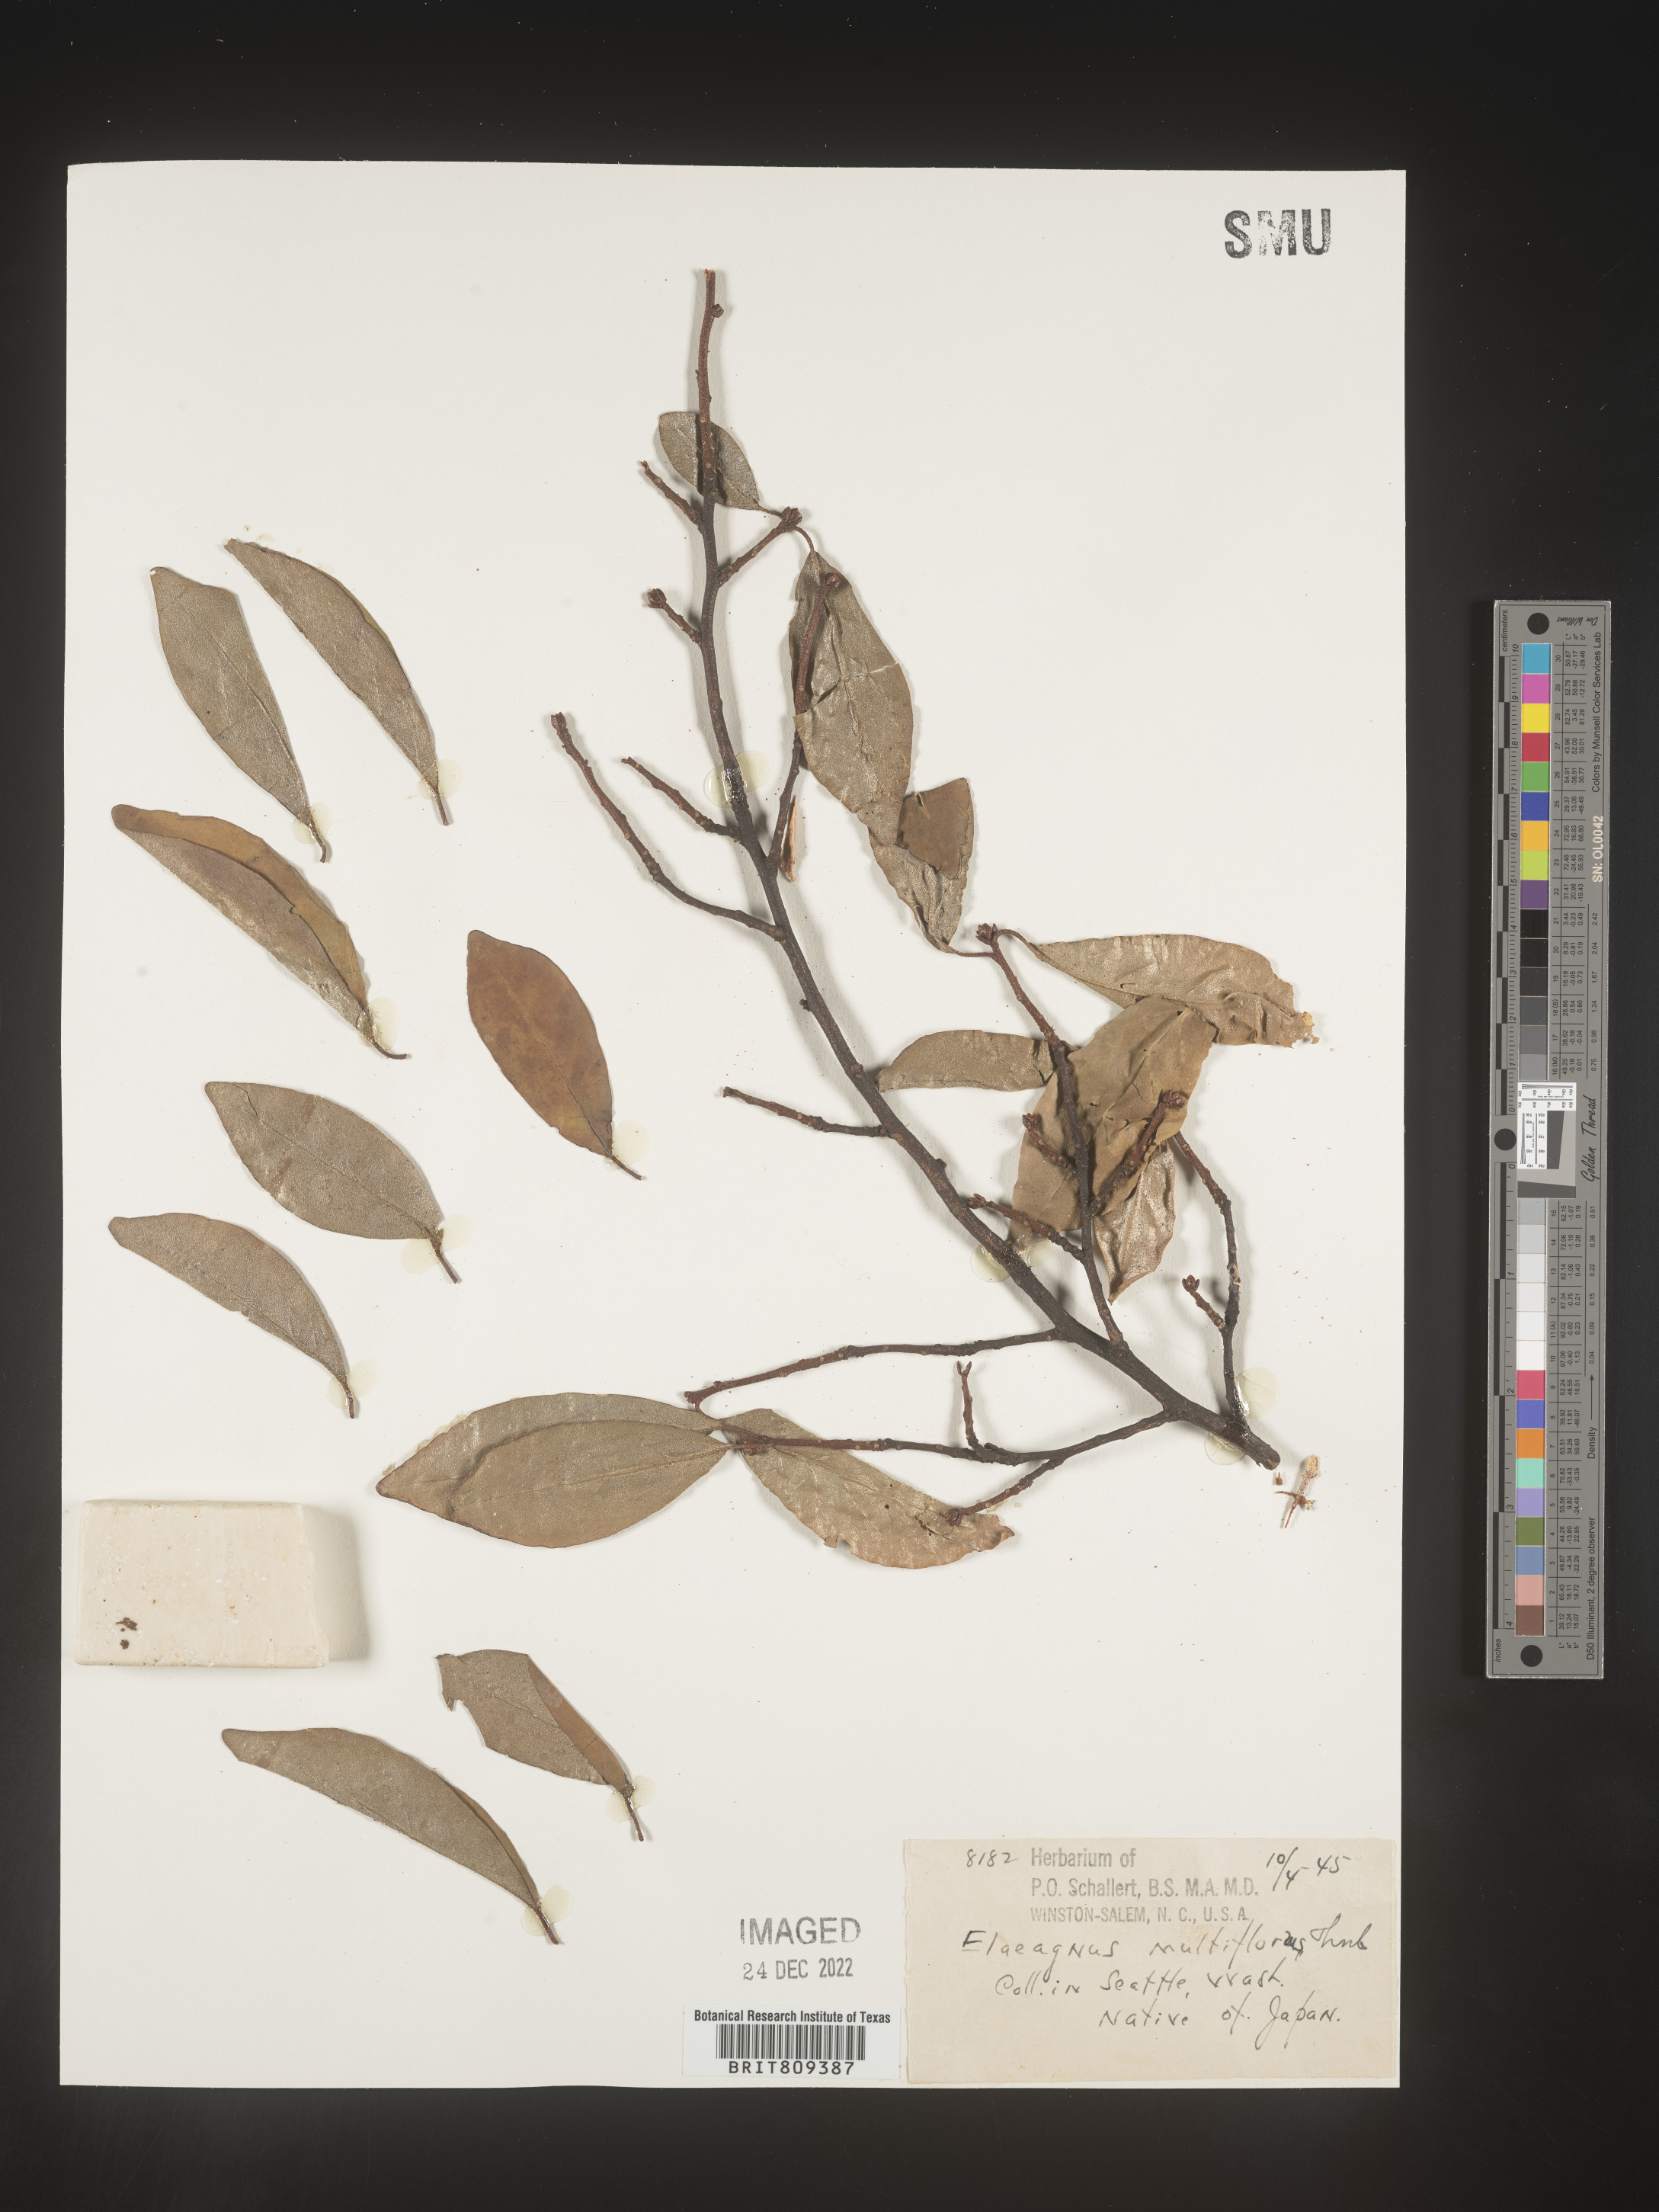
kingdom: Plantae
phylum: Tracheophyta
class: Magnoliopsida
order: Rosales
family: Elaeagnaceae
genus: Elaeagnus
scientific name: Elaeagnus
